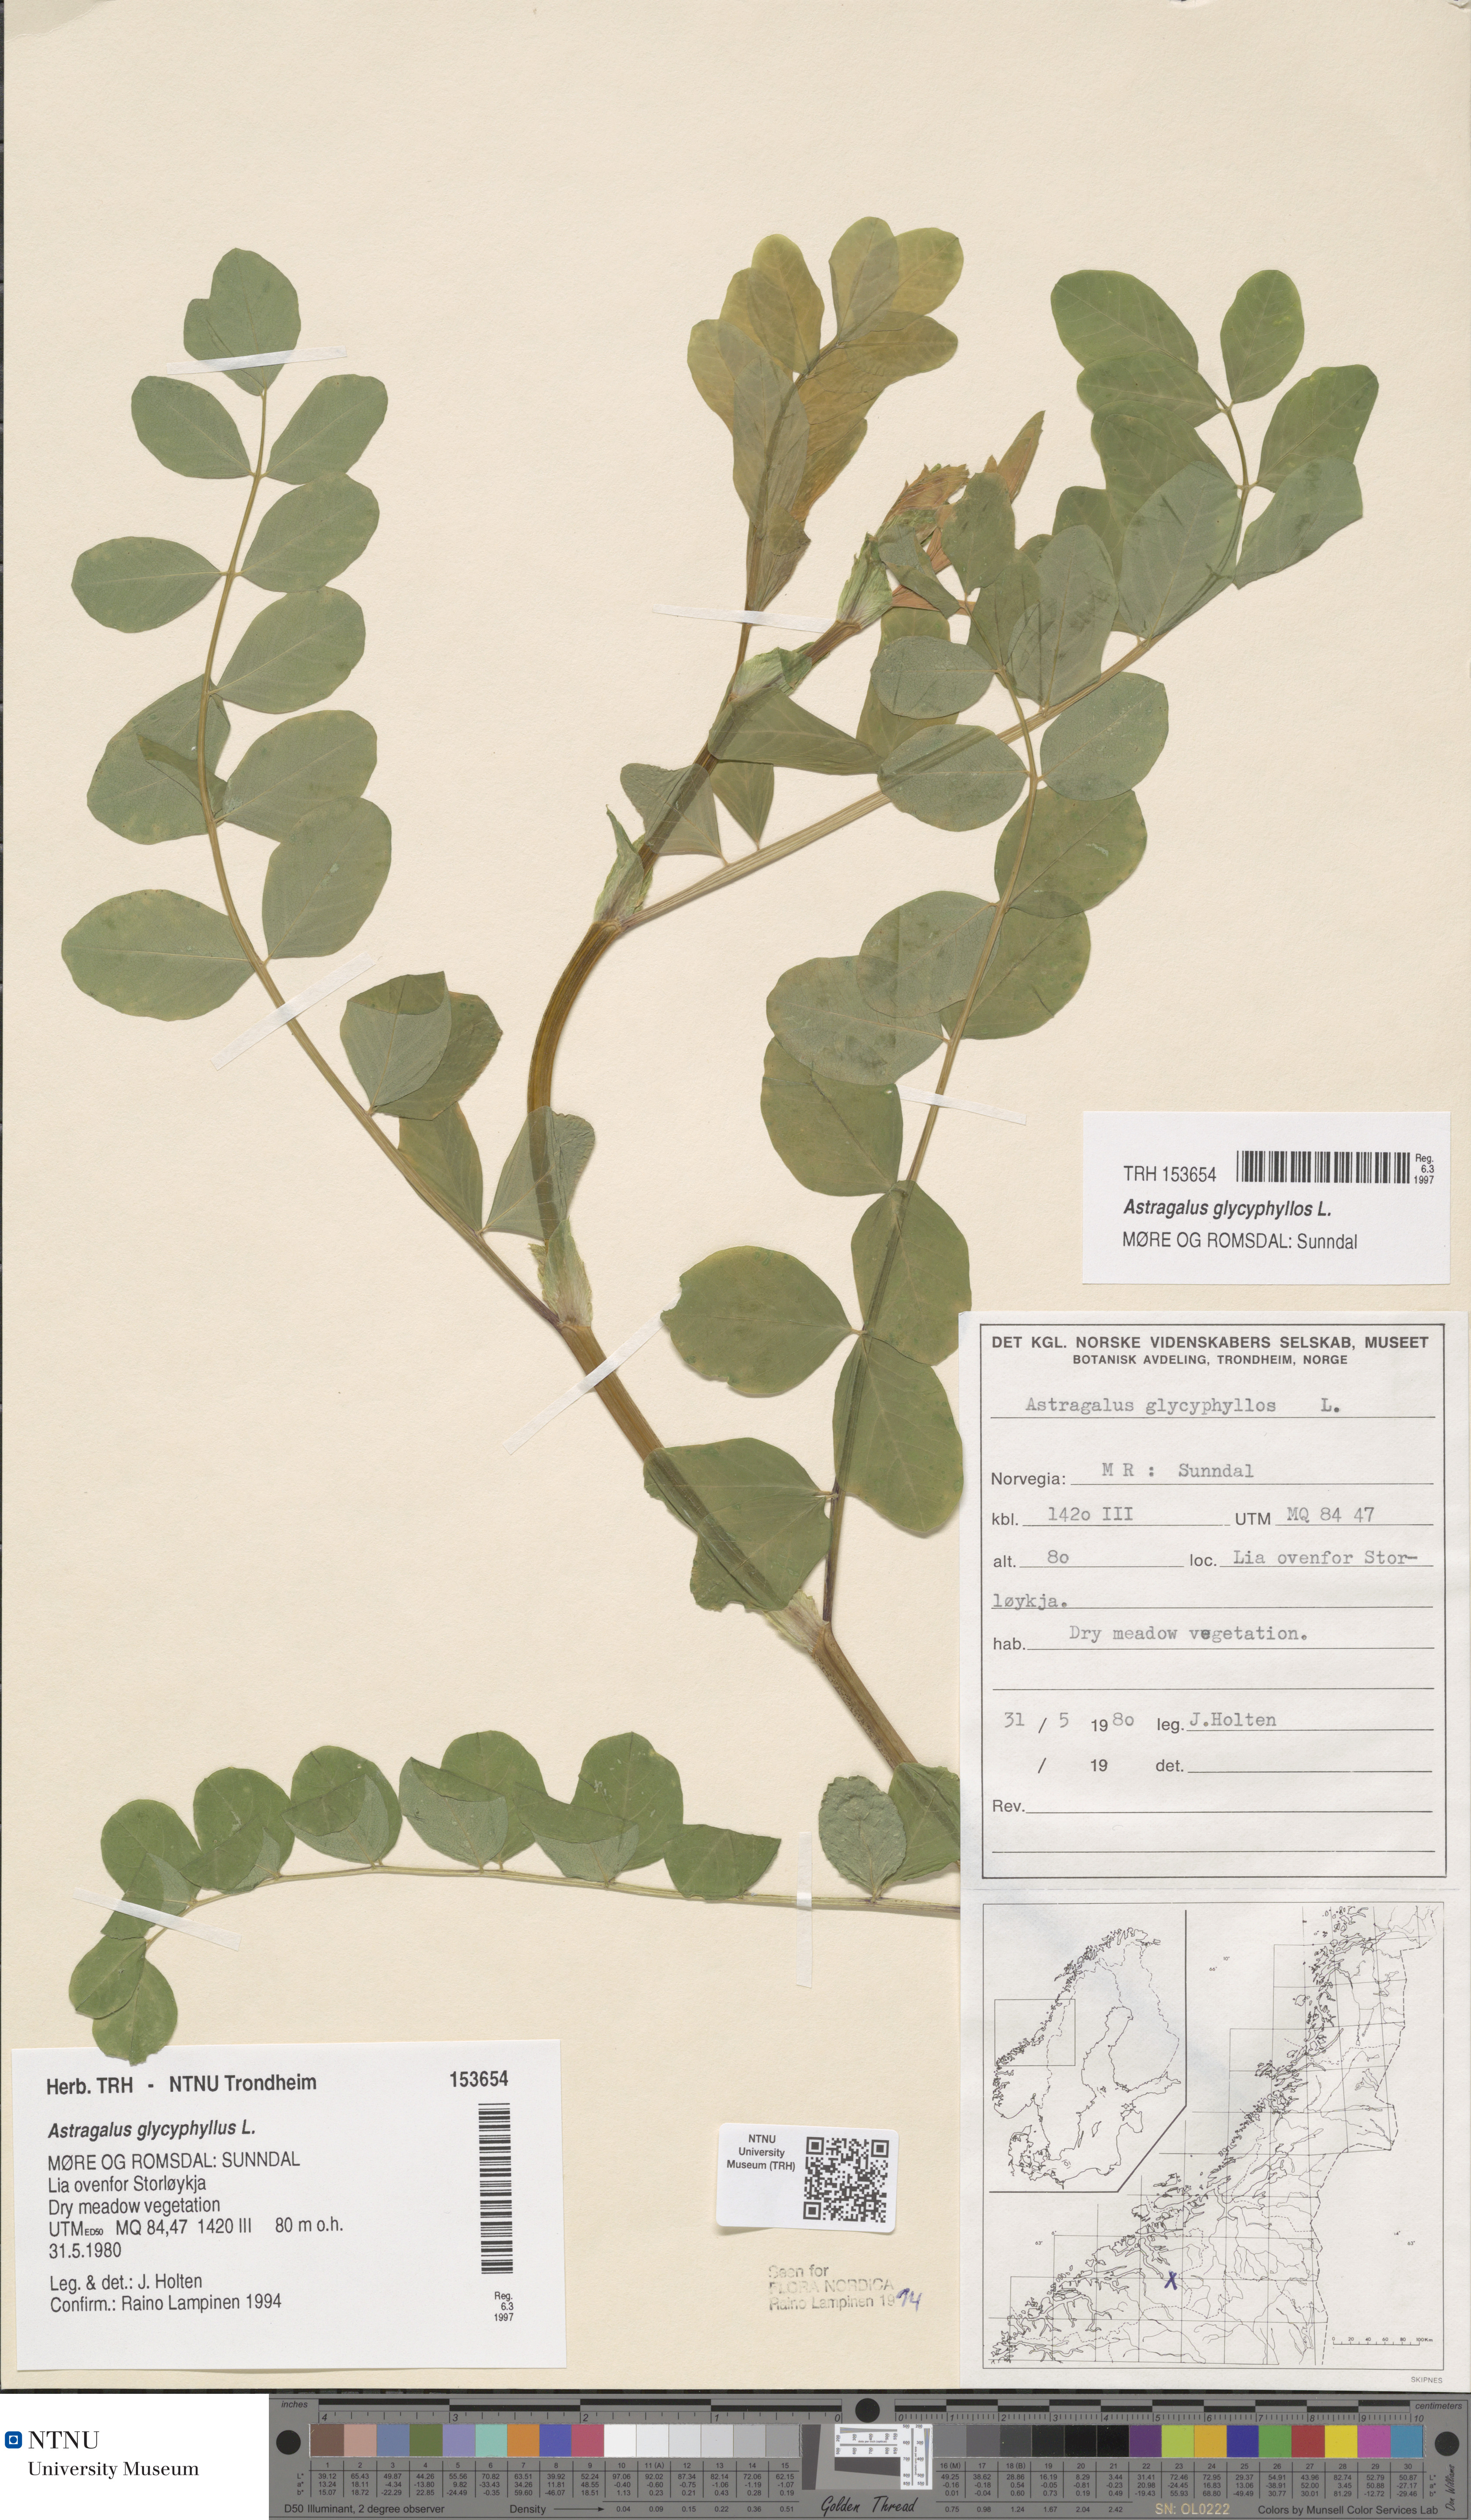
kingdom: Plantae
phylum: Tracheophyta
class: Magnoliopsida
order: Fabales
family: Fabaceae
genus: Astragalus
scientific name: Astragalus glycyphyllos
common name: Wild liquorice
